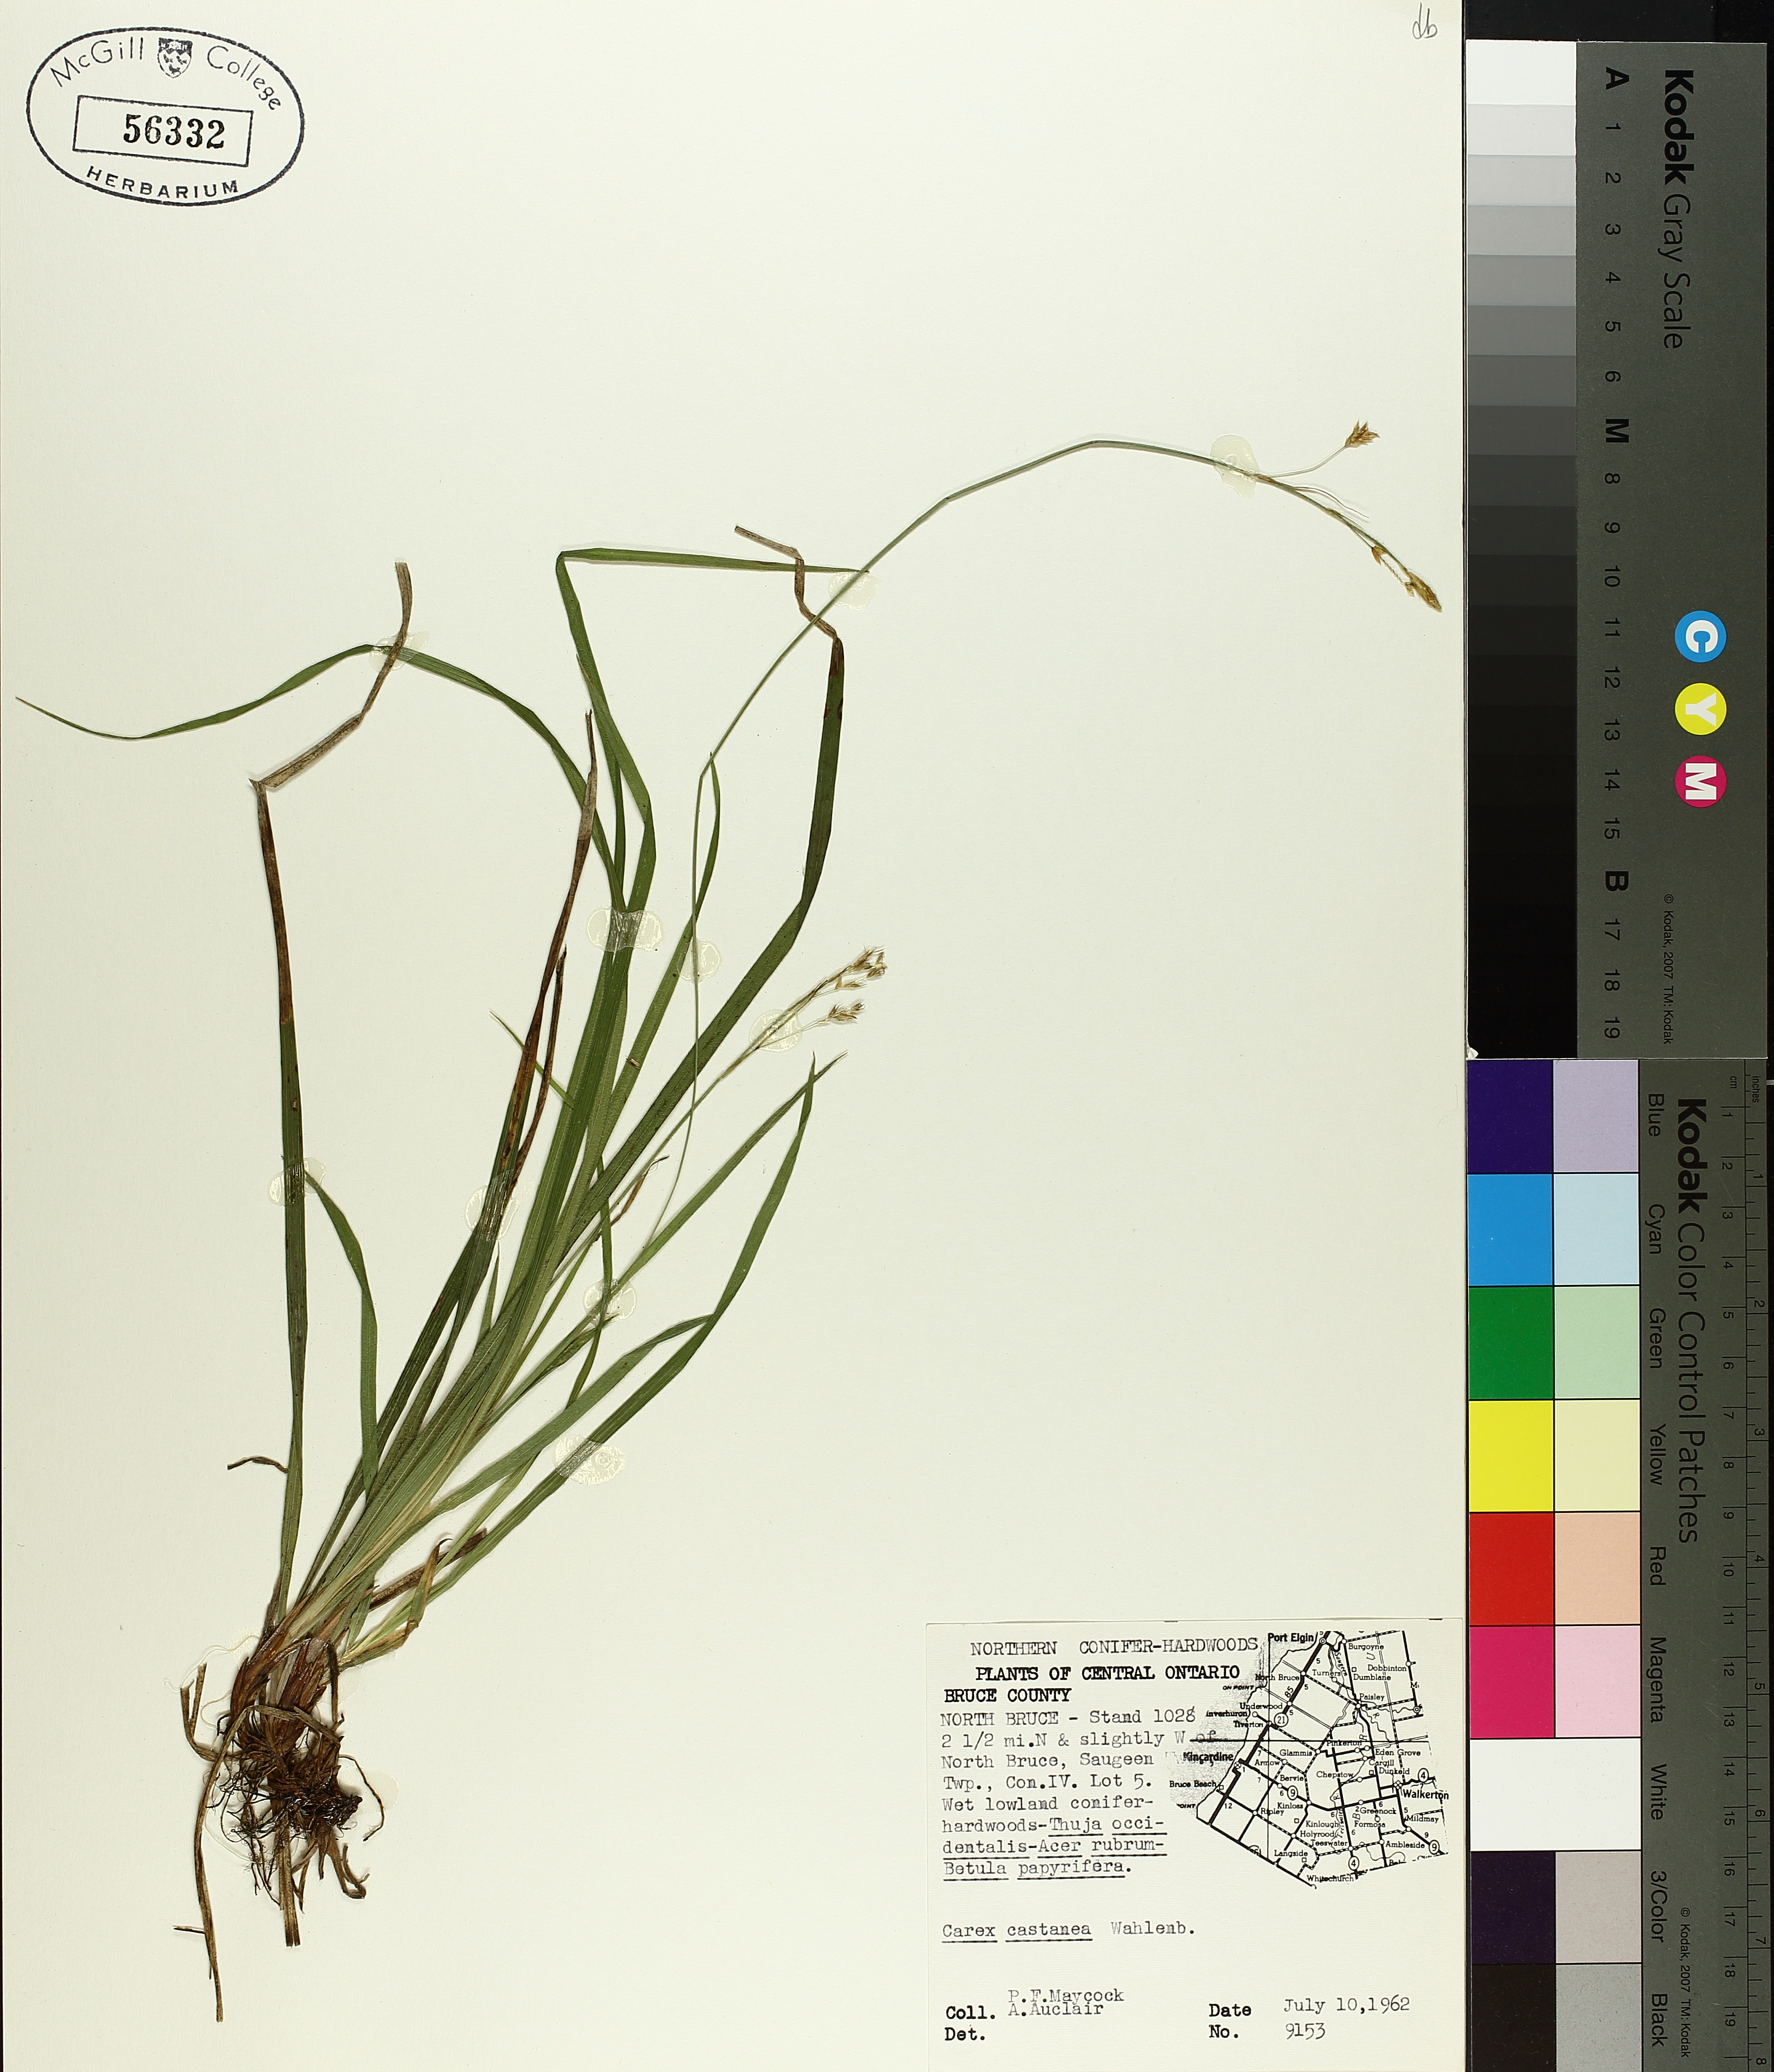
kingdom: Plantae
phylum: Tracheophyta
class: Liliopsida
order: Poales
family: Cyperaceae
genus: Carex
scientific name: Carex castanea
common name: Chestnut sedge
